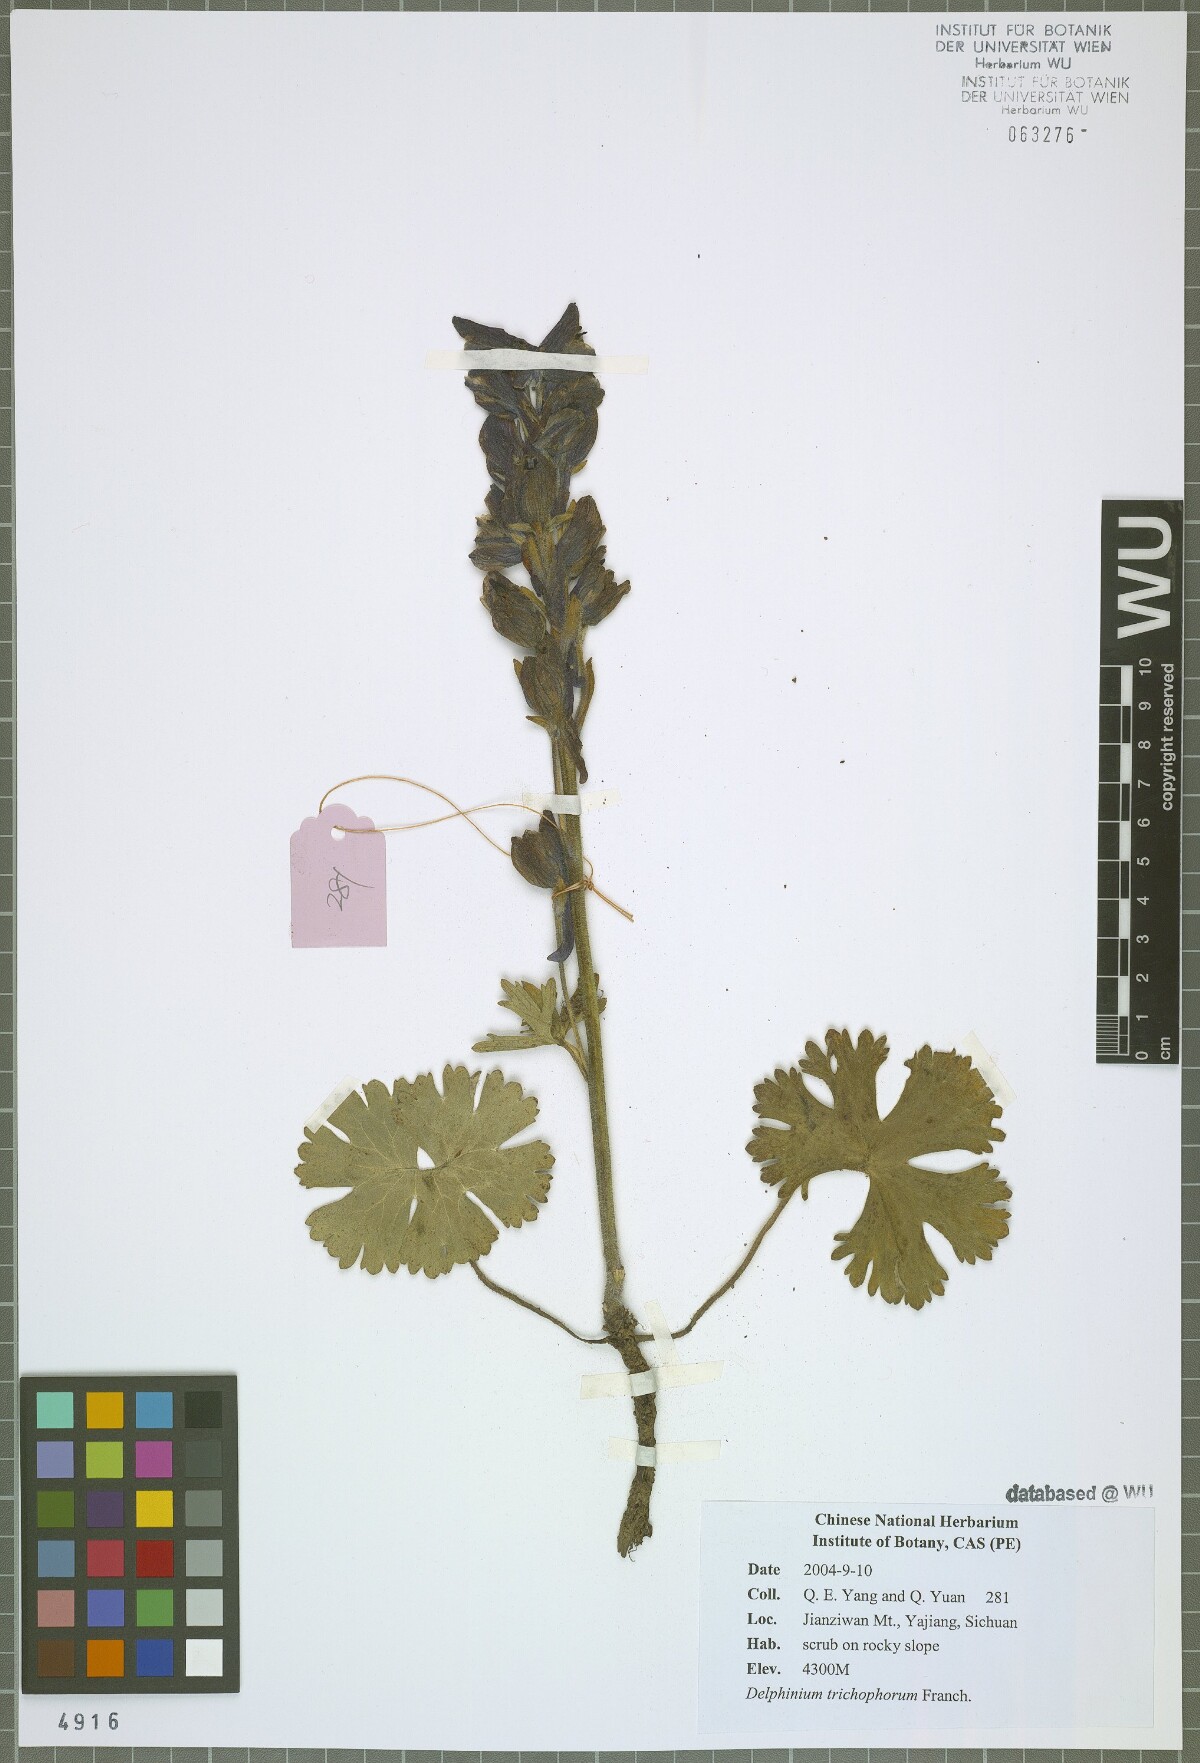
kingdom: Plantae
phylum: Tracheophyta
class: Magnoliopsida
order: Ranunculales
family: Ranunculaceae
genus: Delphinium
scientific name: Delphinium trichophorum
